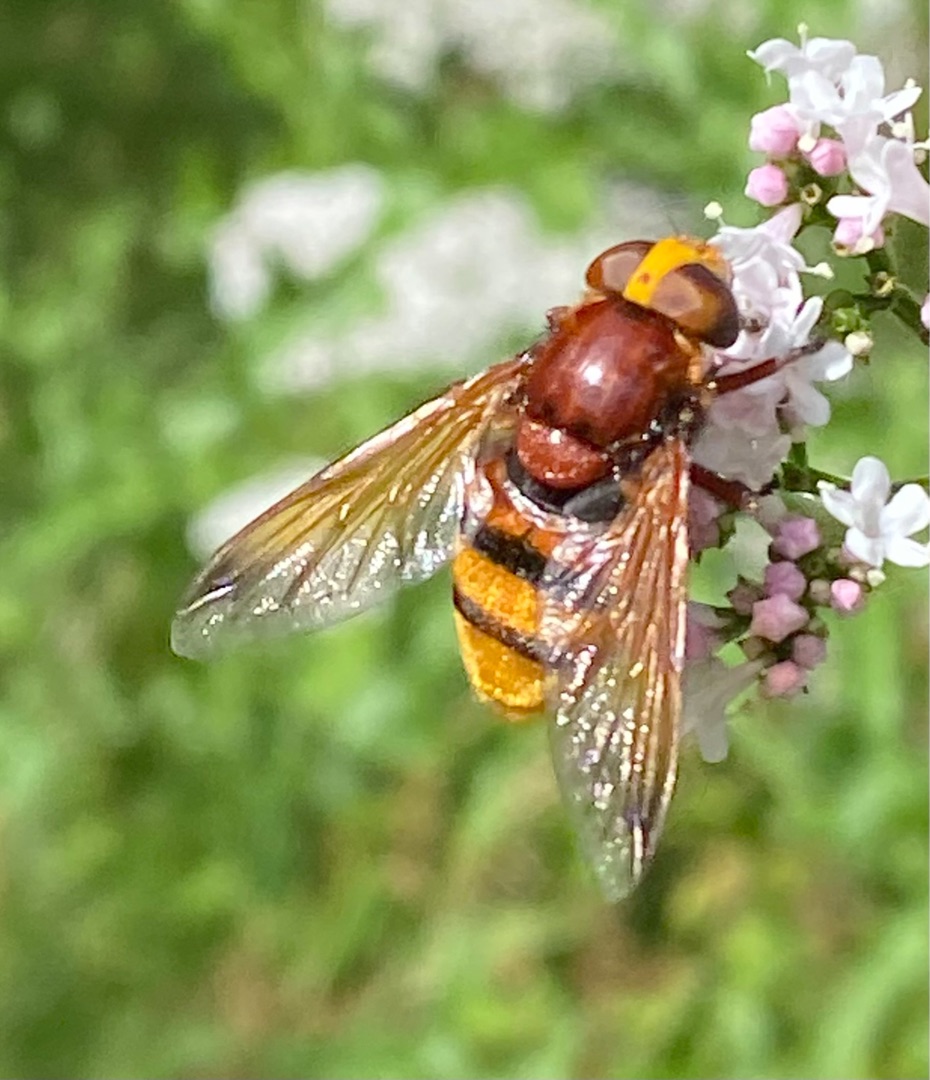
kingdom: Animalia
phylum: Arthropoda
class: Insecta
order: Diptera
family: Syrphidae
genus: Volucella
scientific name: Volucella zonaria
